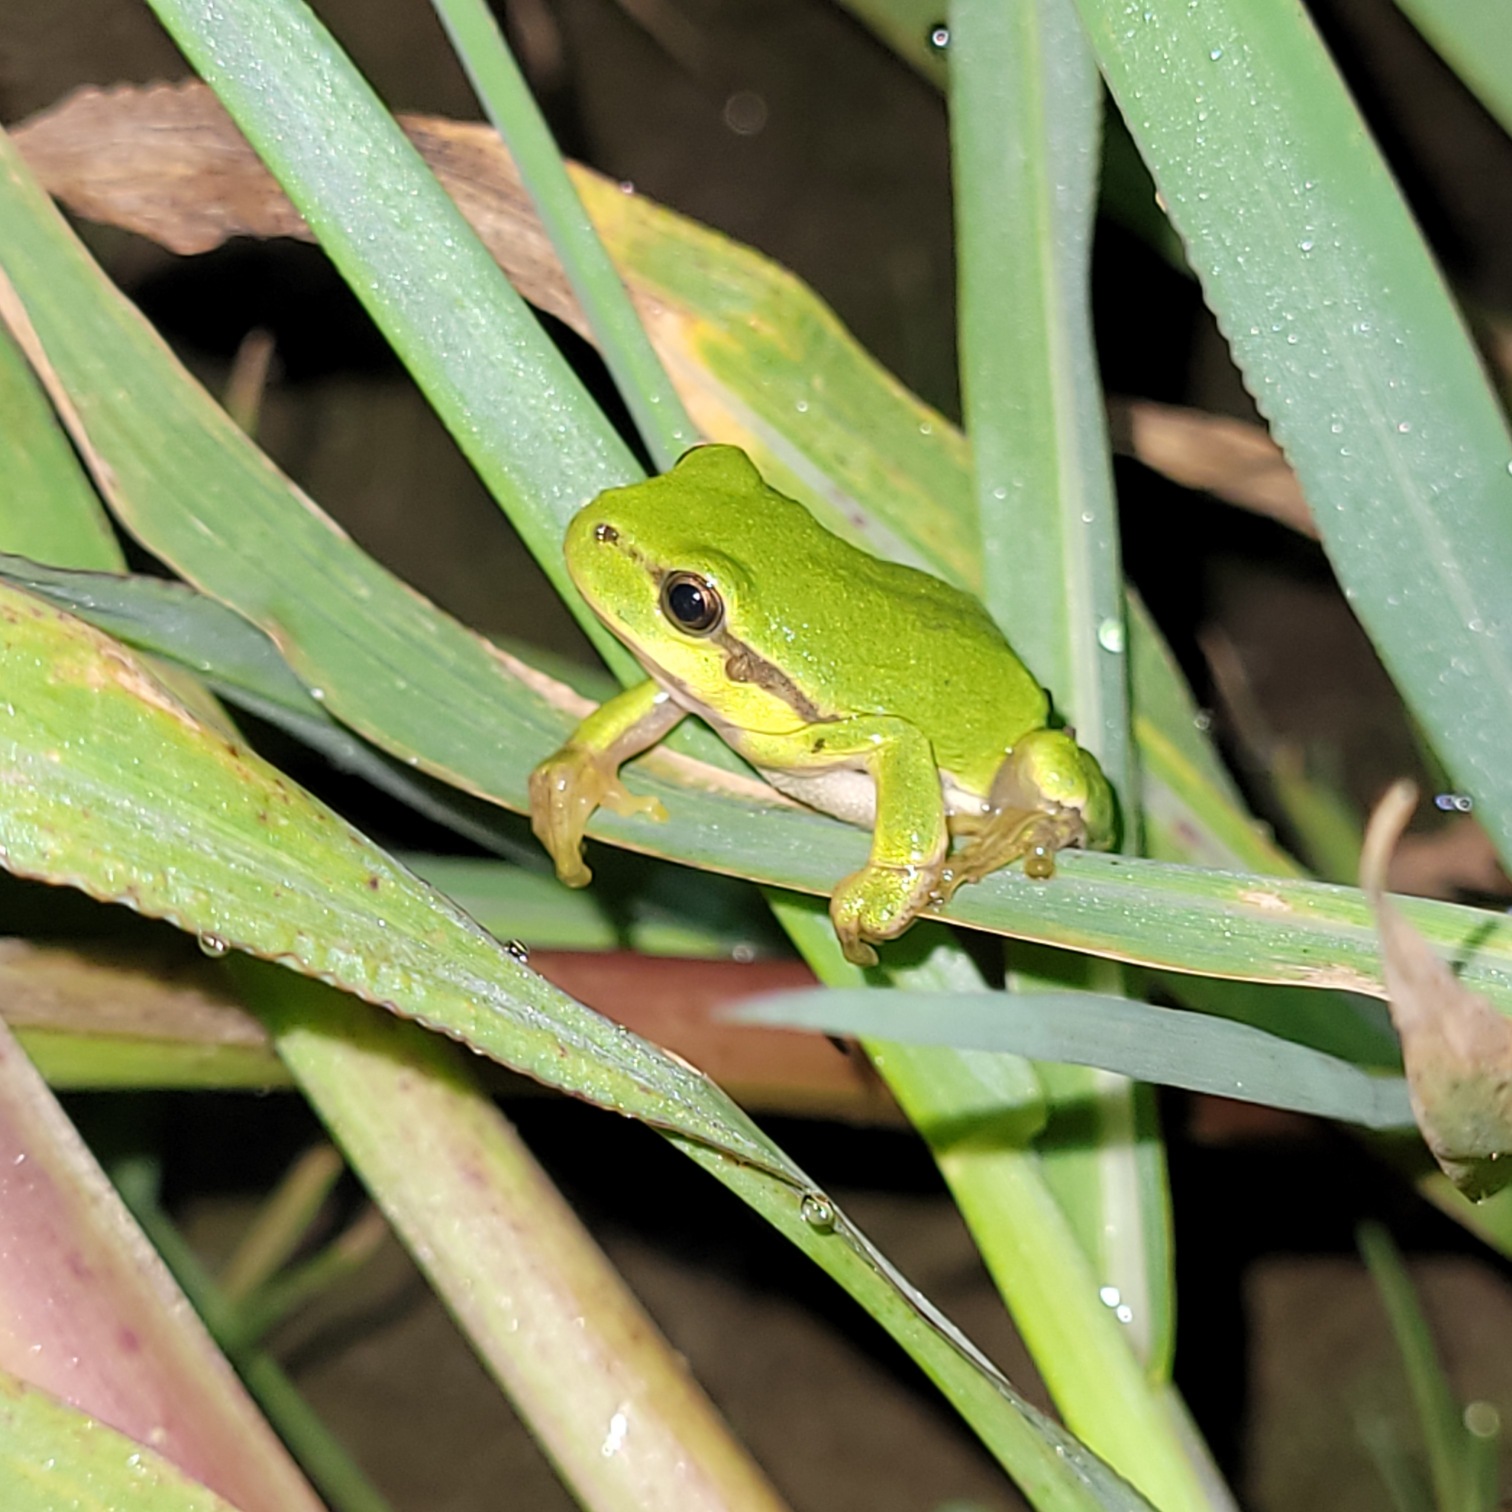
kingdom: Animalia
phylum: Chordata
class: Amphibia
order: Anura
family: Hylidae
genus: Hyla
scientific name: Hyla arborea
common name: Løvfrø
